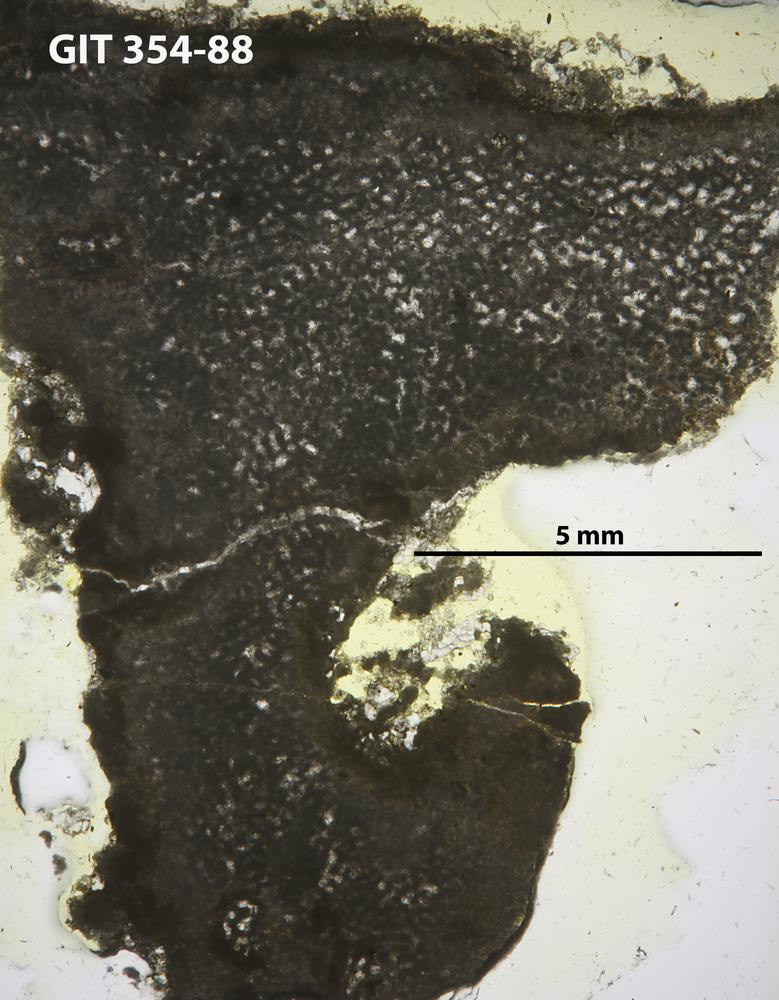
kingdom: Animalia
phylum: Porifera
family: Ecclimadictyidae
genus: Ecclimadictyon
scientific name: Ecclimadictyon koigiense
